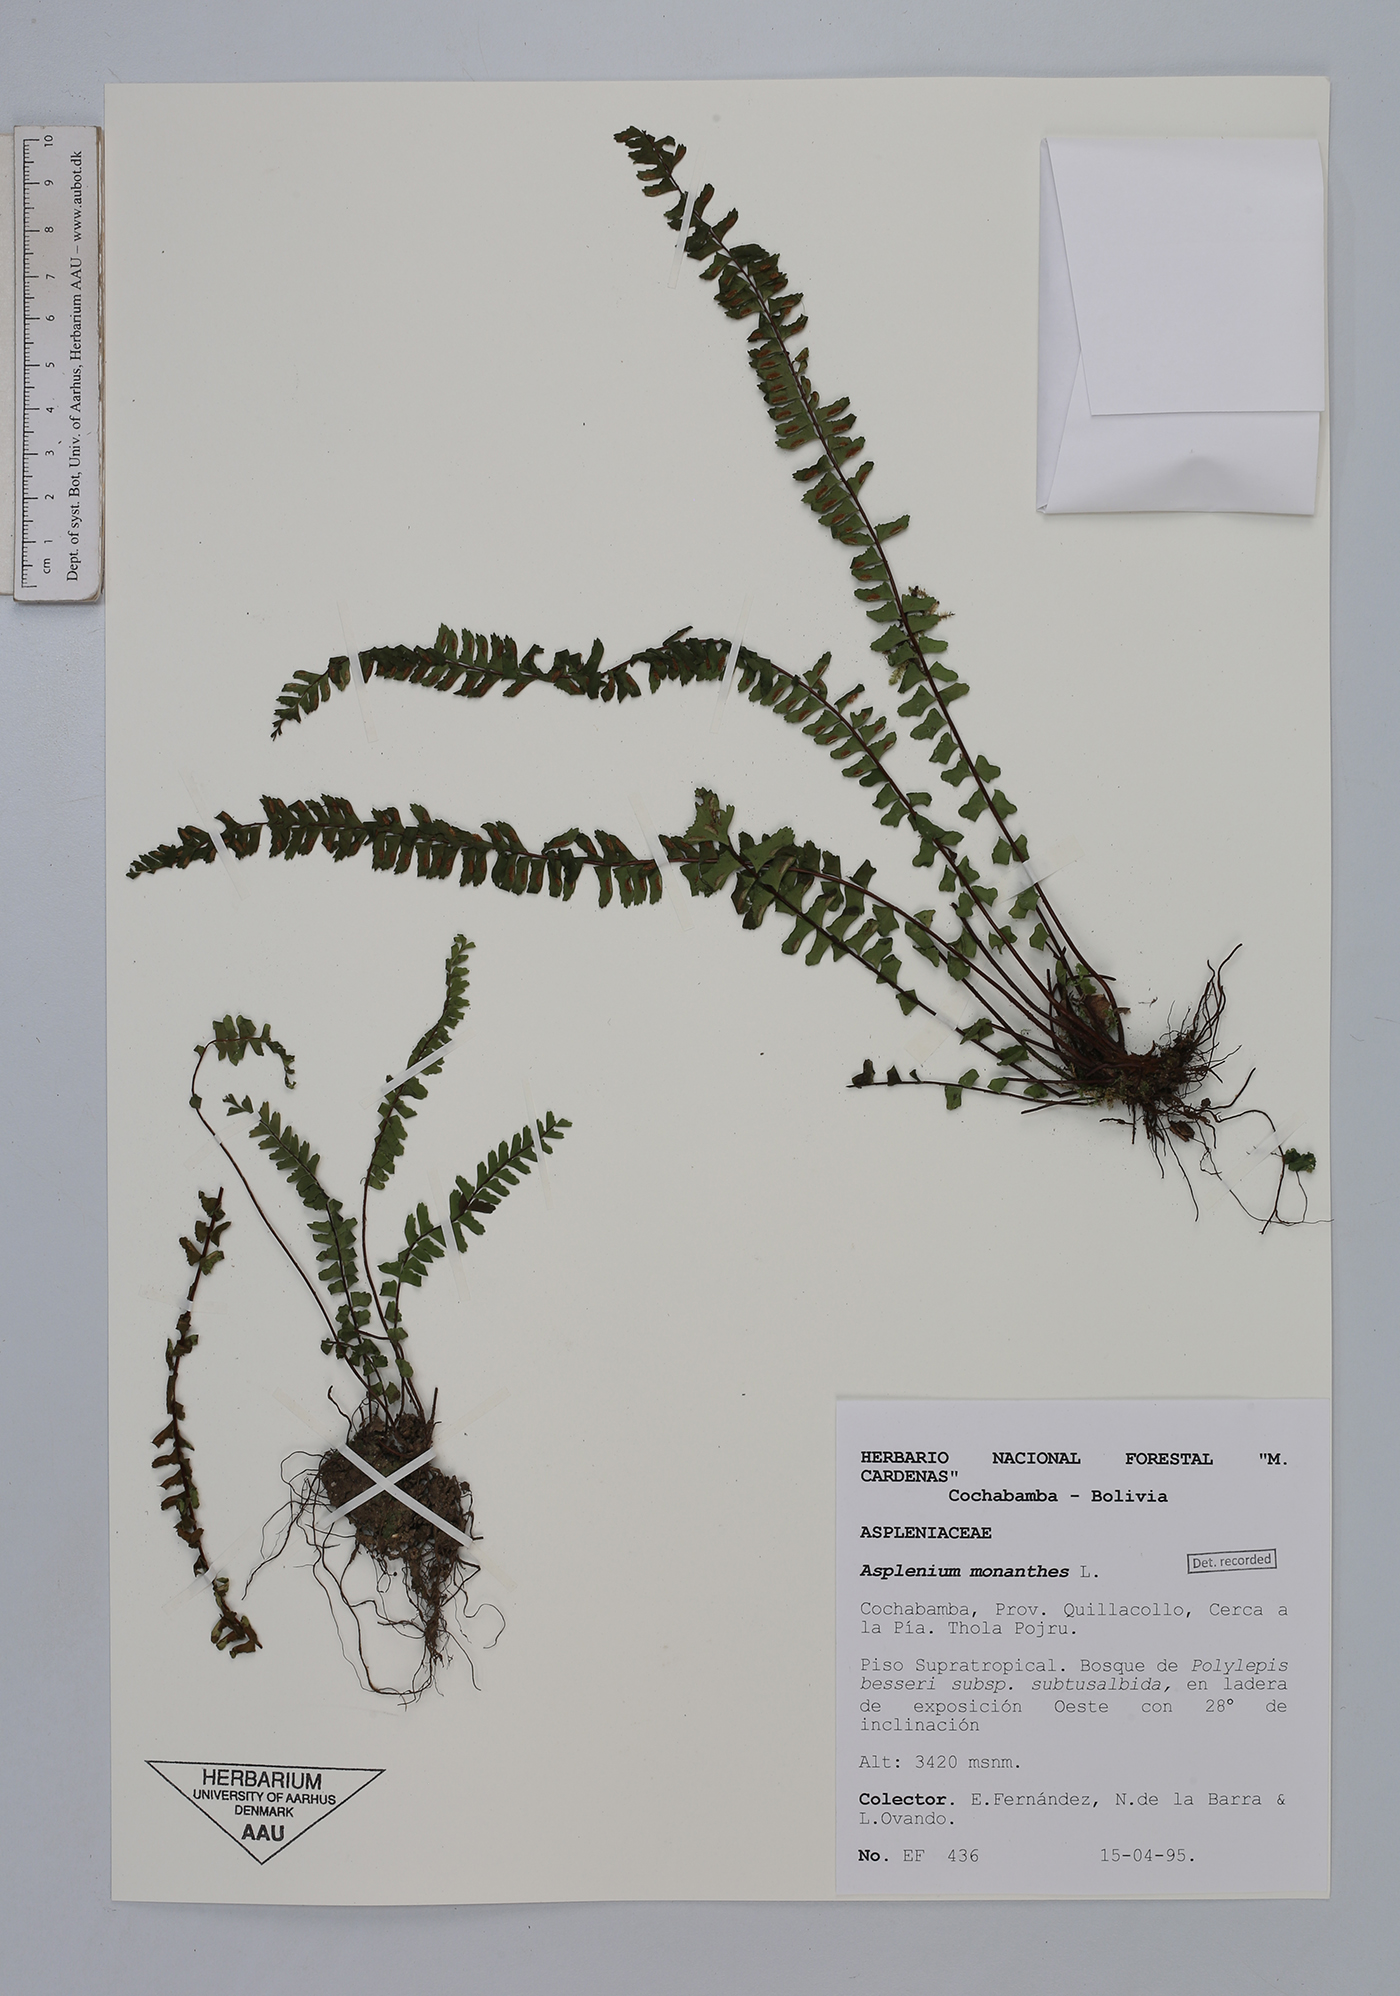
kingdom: Plantae
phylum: Tracheophyta
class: Polypodiopsida
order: Polypodiales
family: Aspleniaceae
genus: Asplenium
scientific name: Asplenium monanthes
